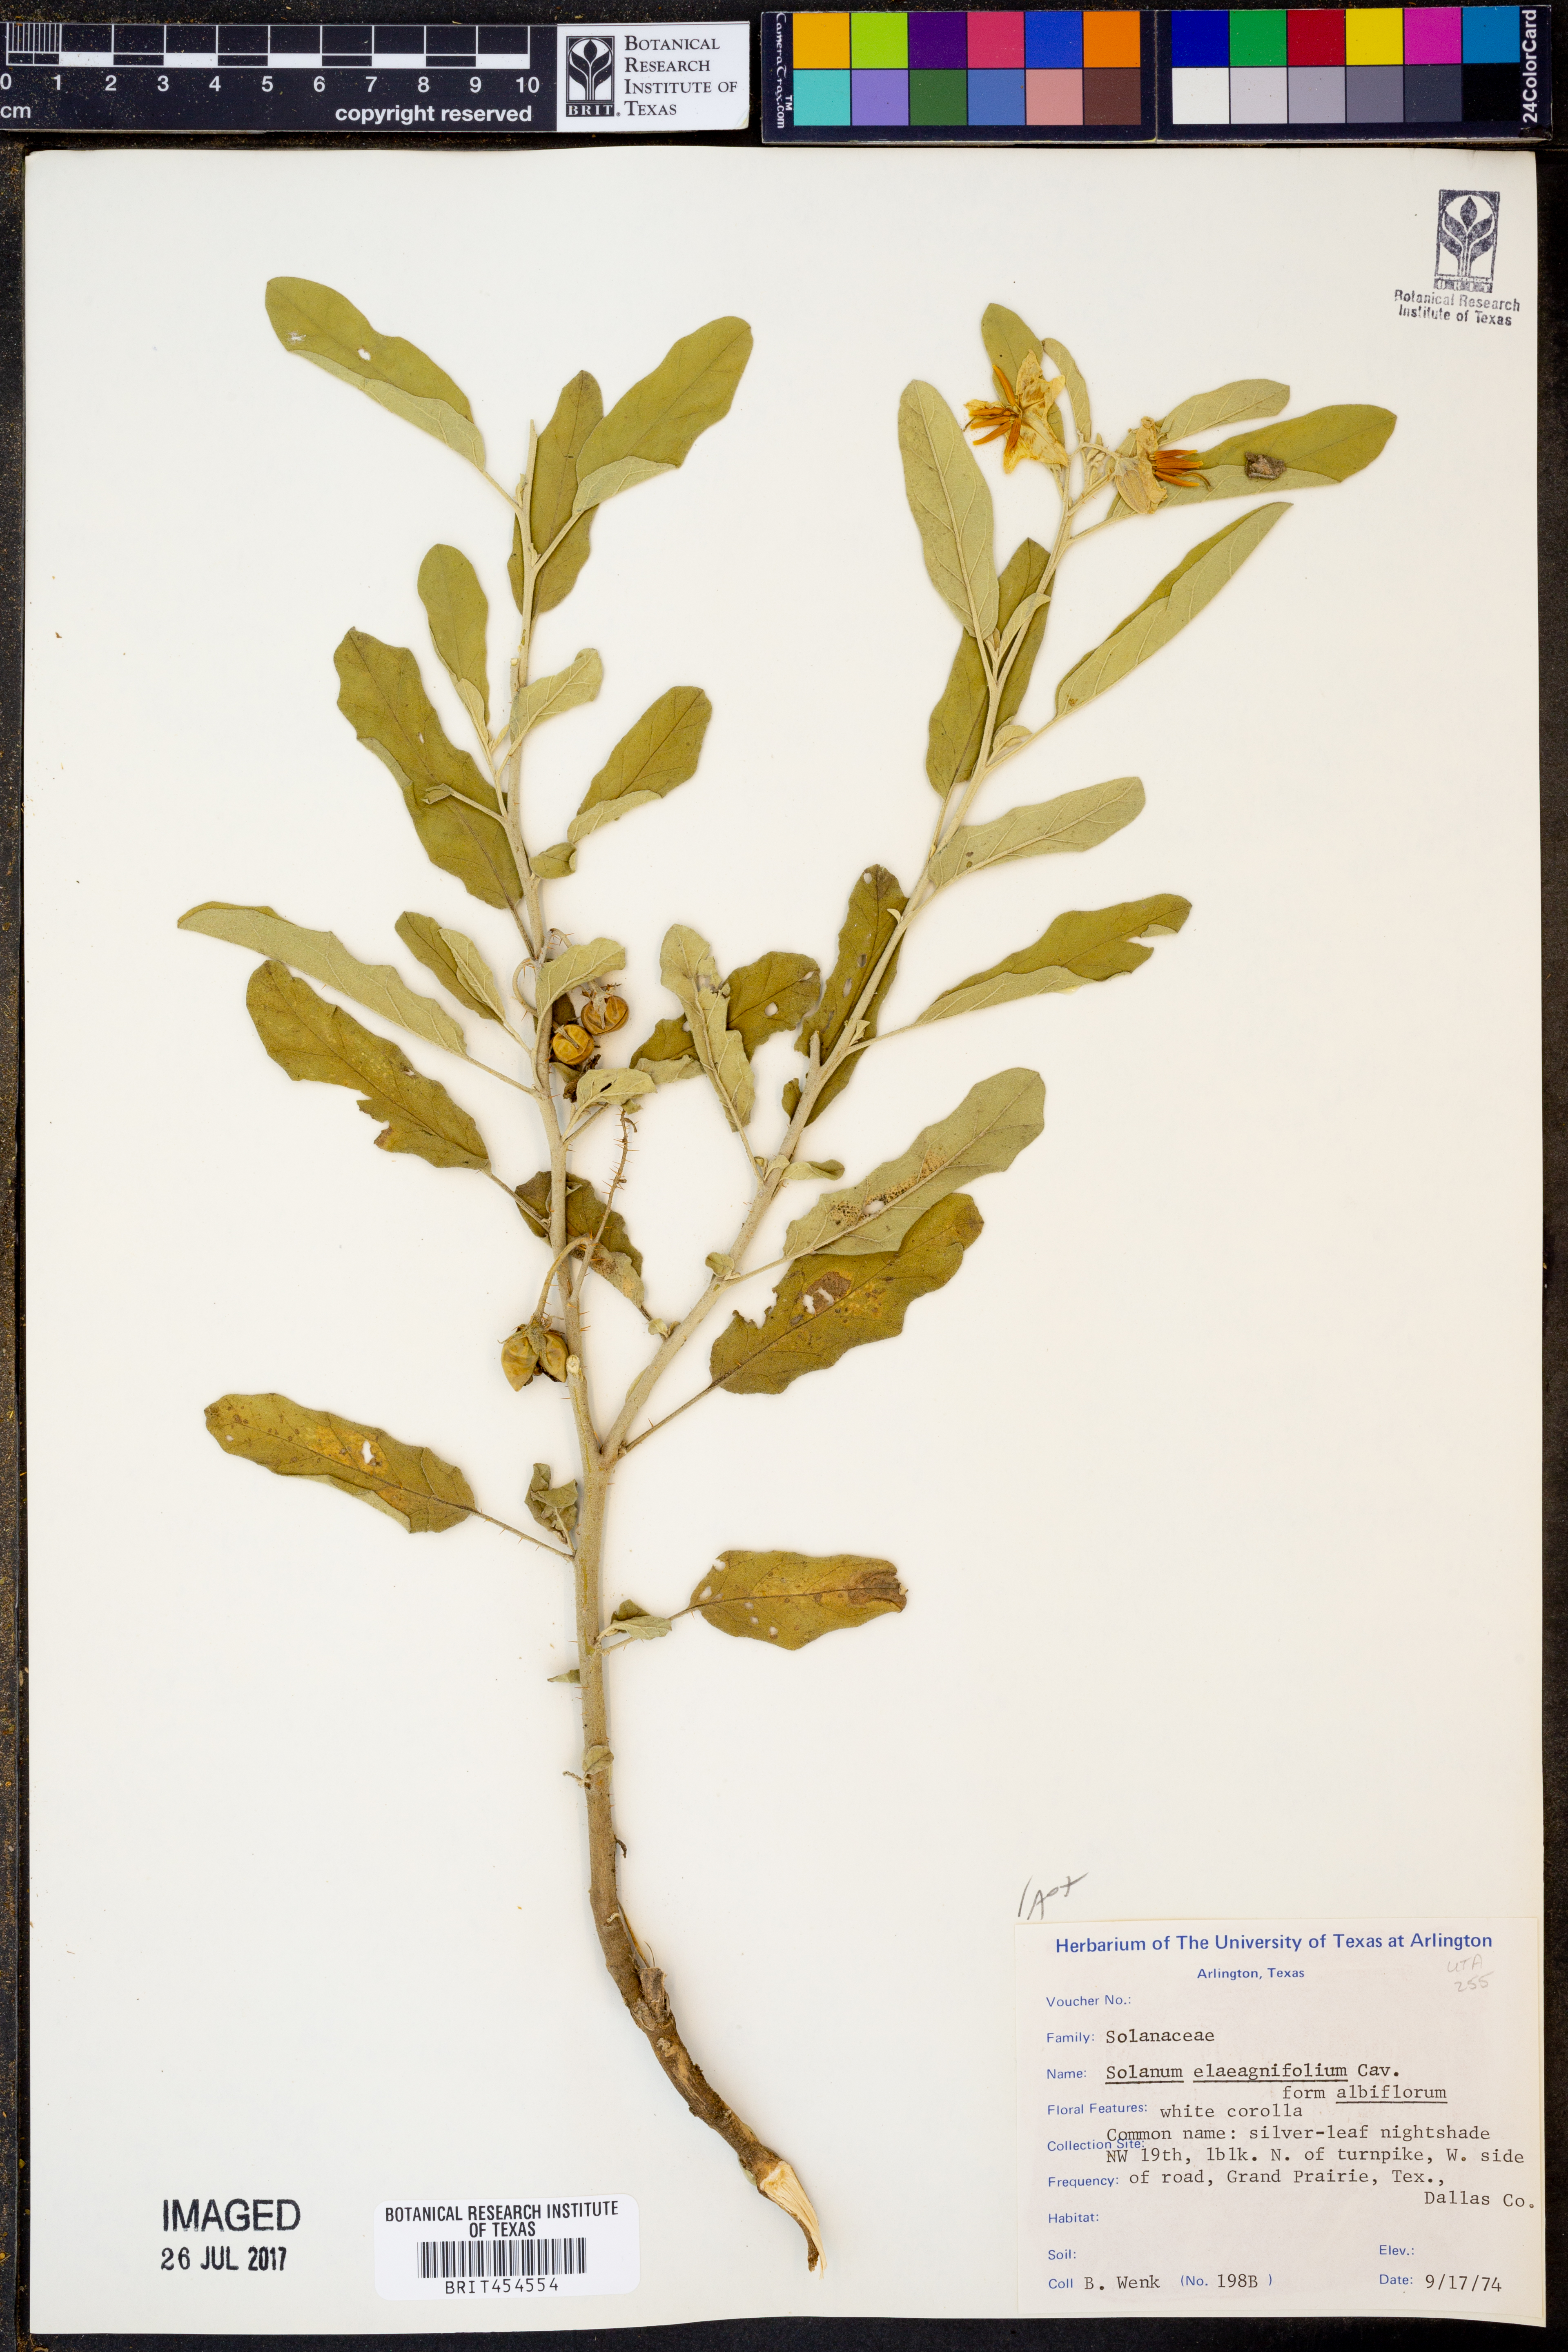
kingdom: Plantae
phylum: Tracheophyta
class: Magnoliopsida
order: Solanales
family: Solanaceae
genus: Solanum
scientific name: Solanum elaeagnifolium
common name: Silverleaf nightshade
